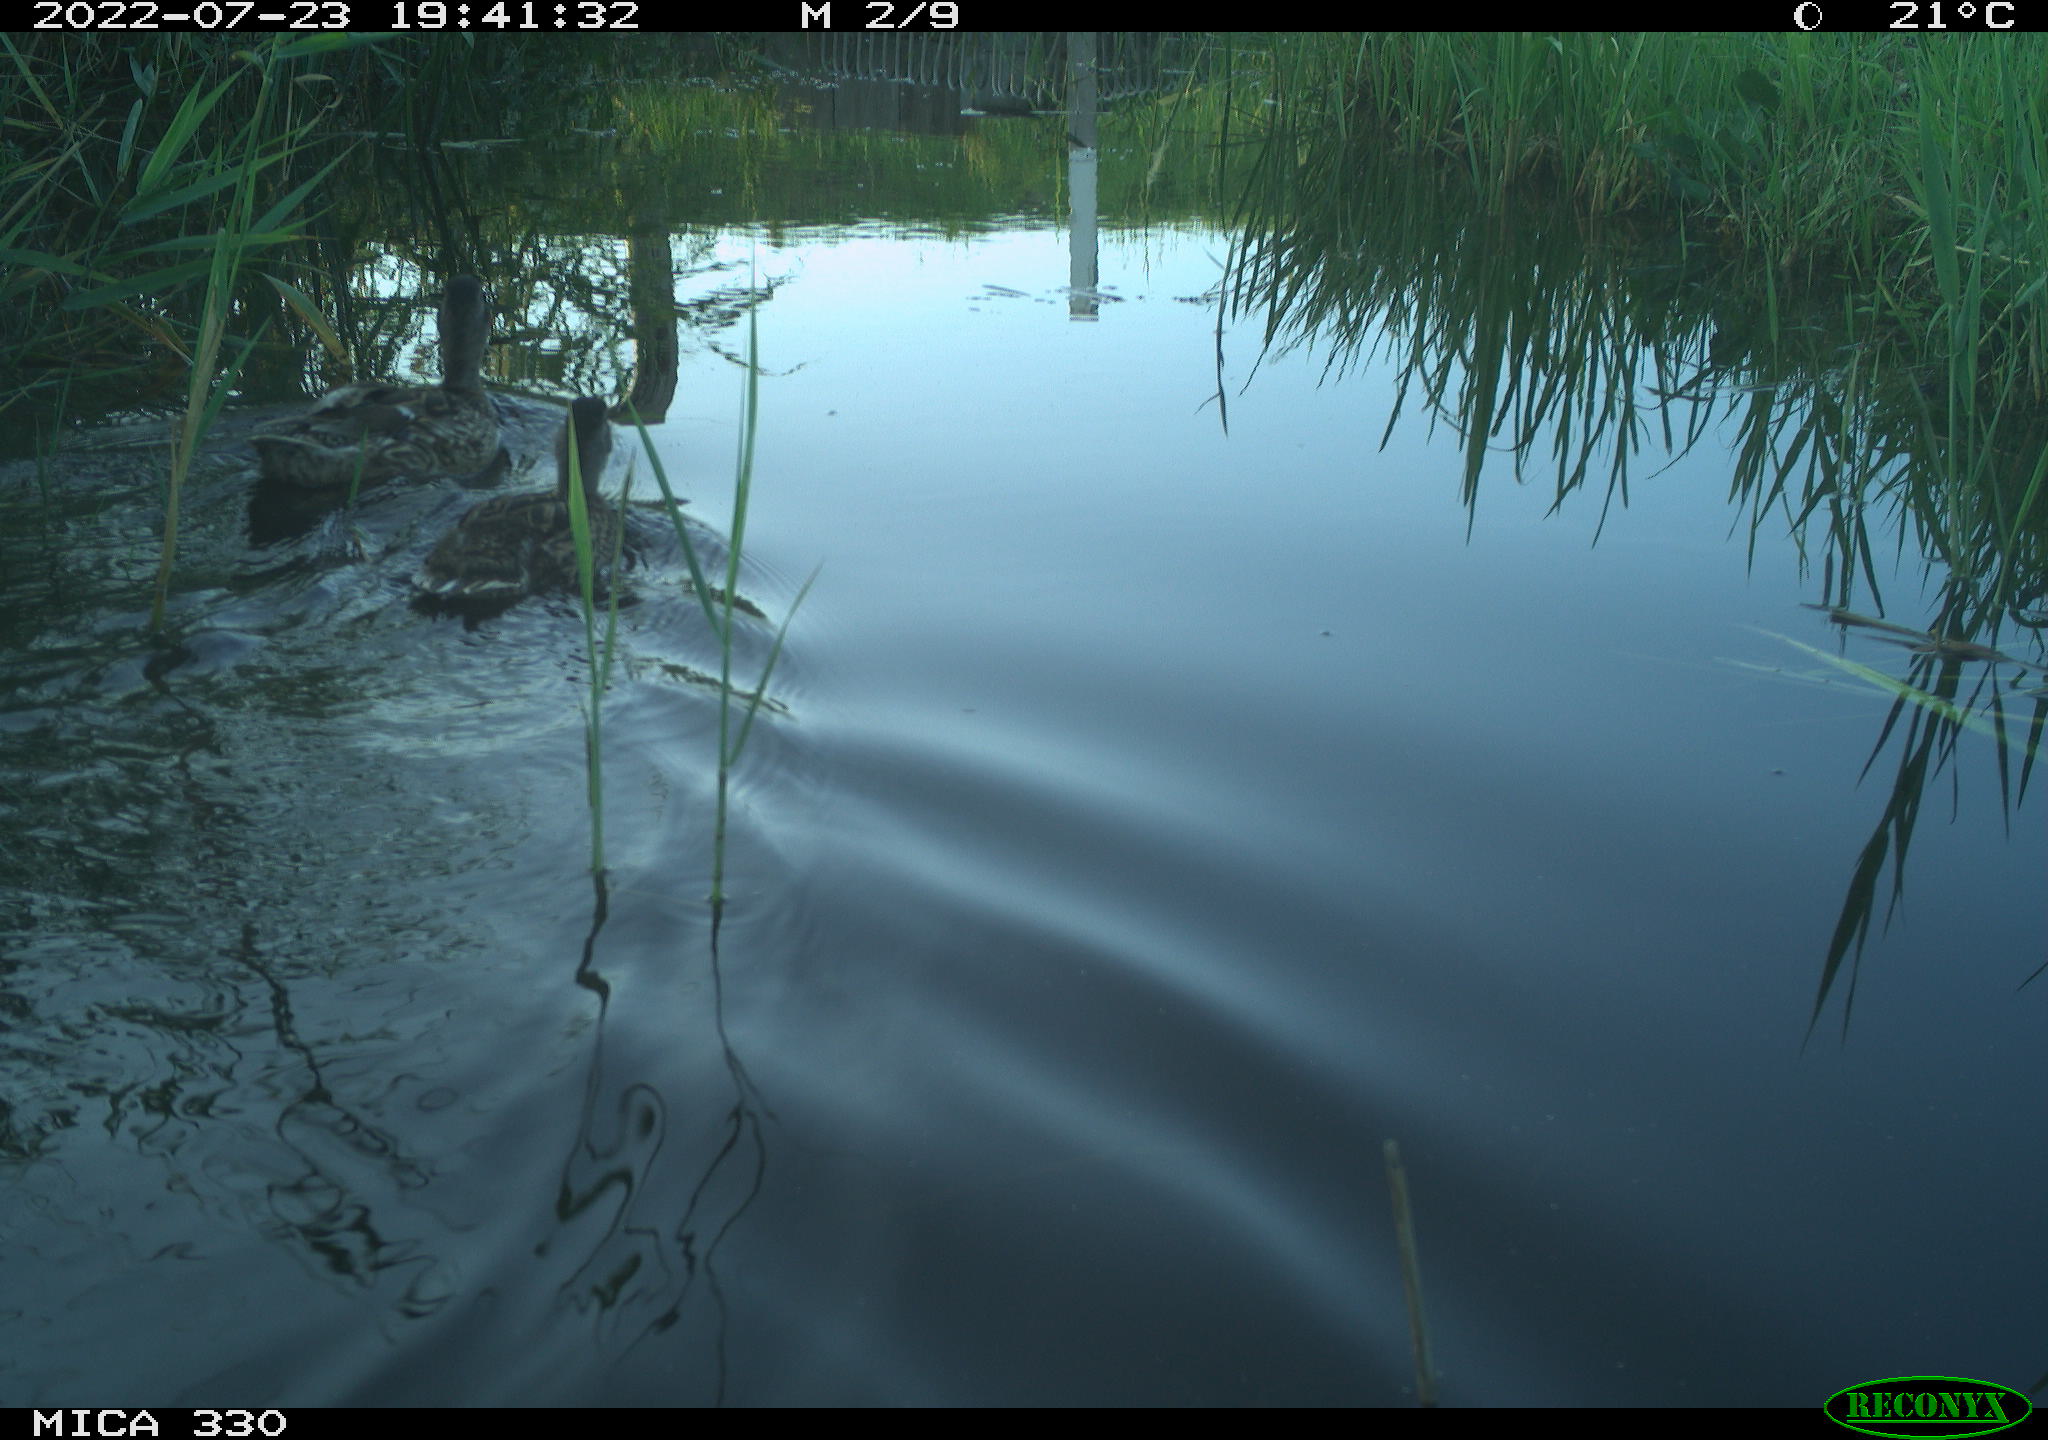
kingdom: Animalia
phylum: Chordata
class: Aves
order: Anseriformes
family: Anatidae
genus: Anas
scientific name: Anas platyrhynchos
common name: Mallard
